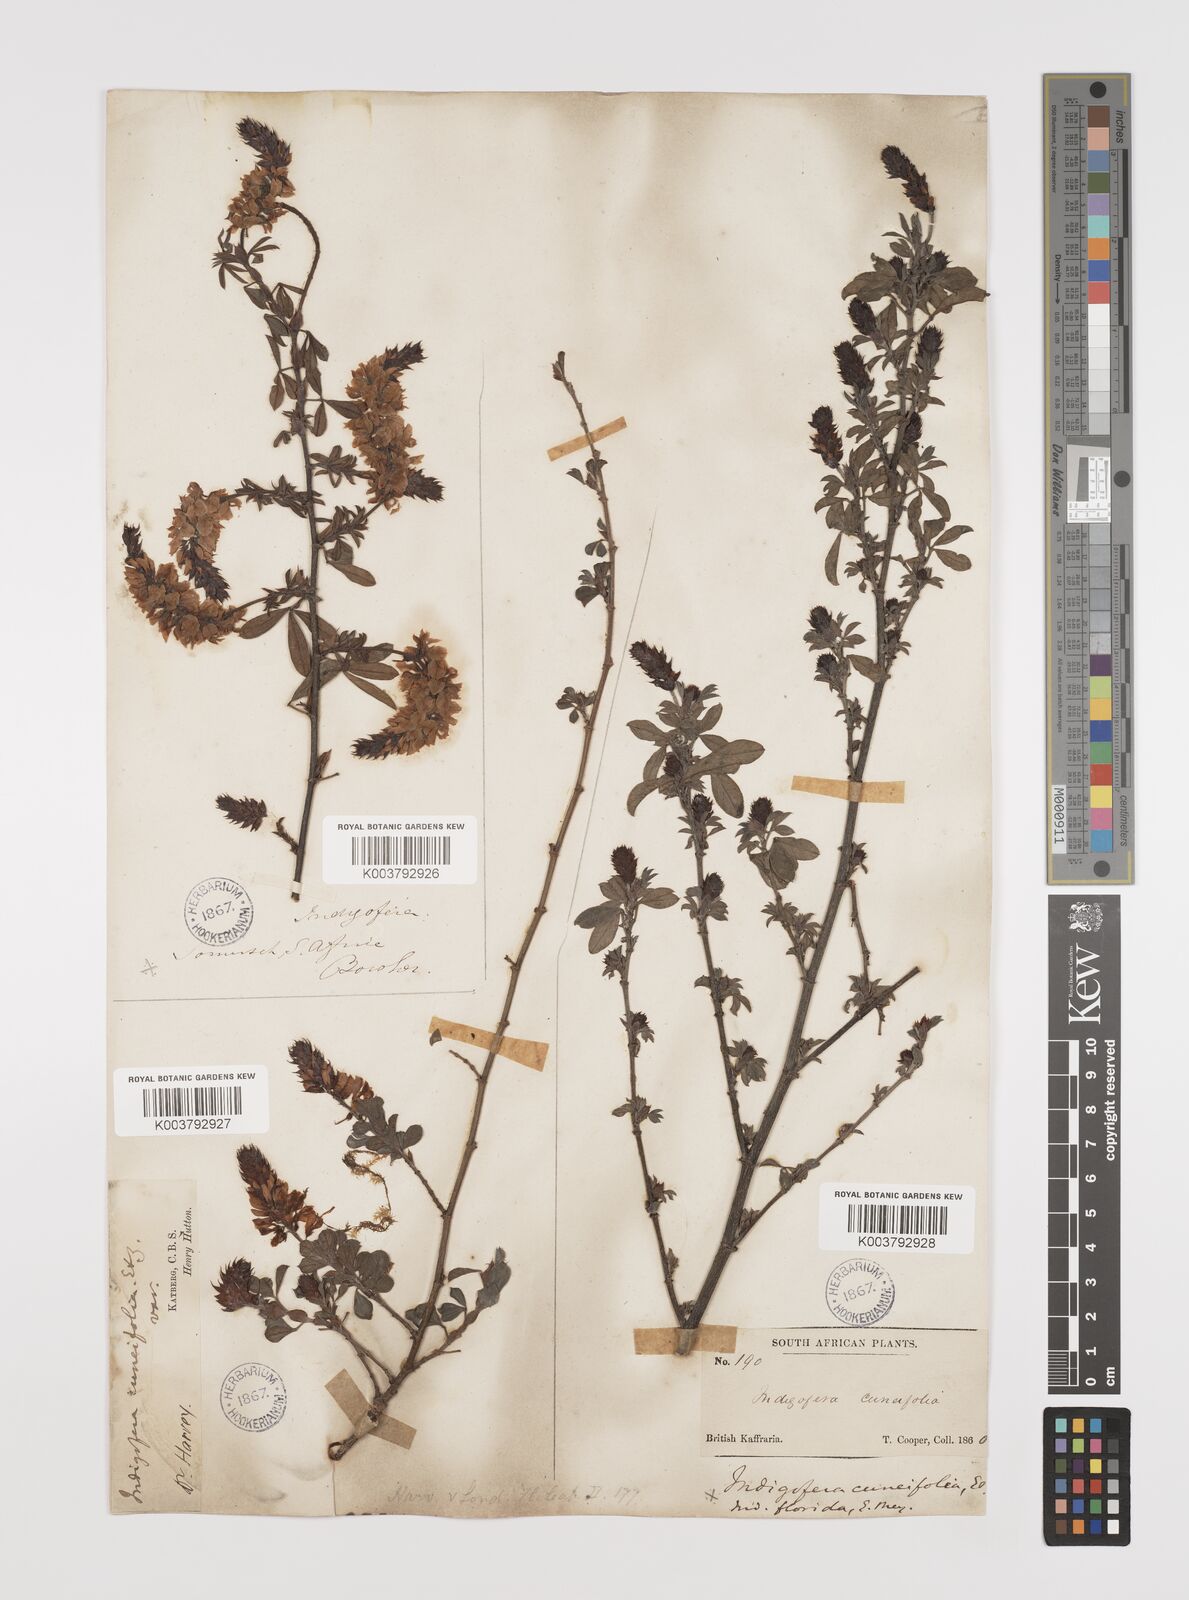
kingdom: Plantae
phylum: Tracheophyta
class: Magnoliopsida
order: Fabales
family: Fabaceae
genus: Indigofera
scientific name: Indigofera cuneifolia
